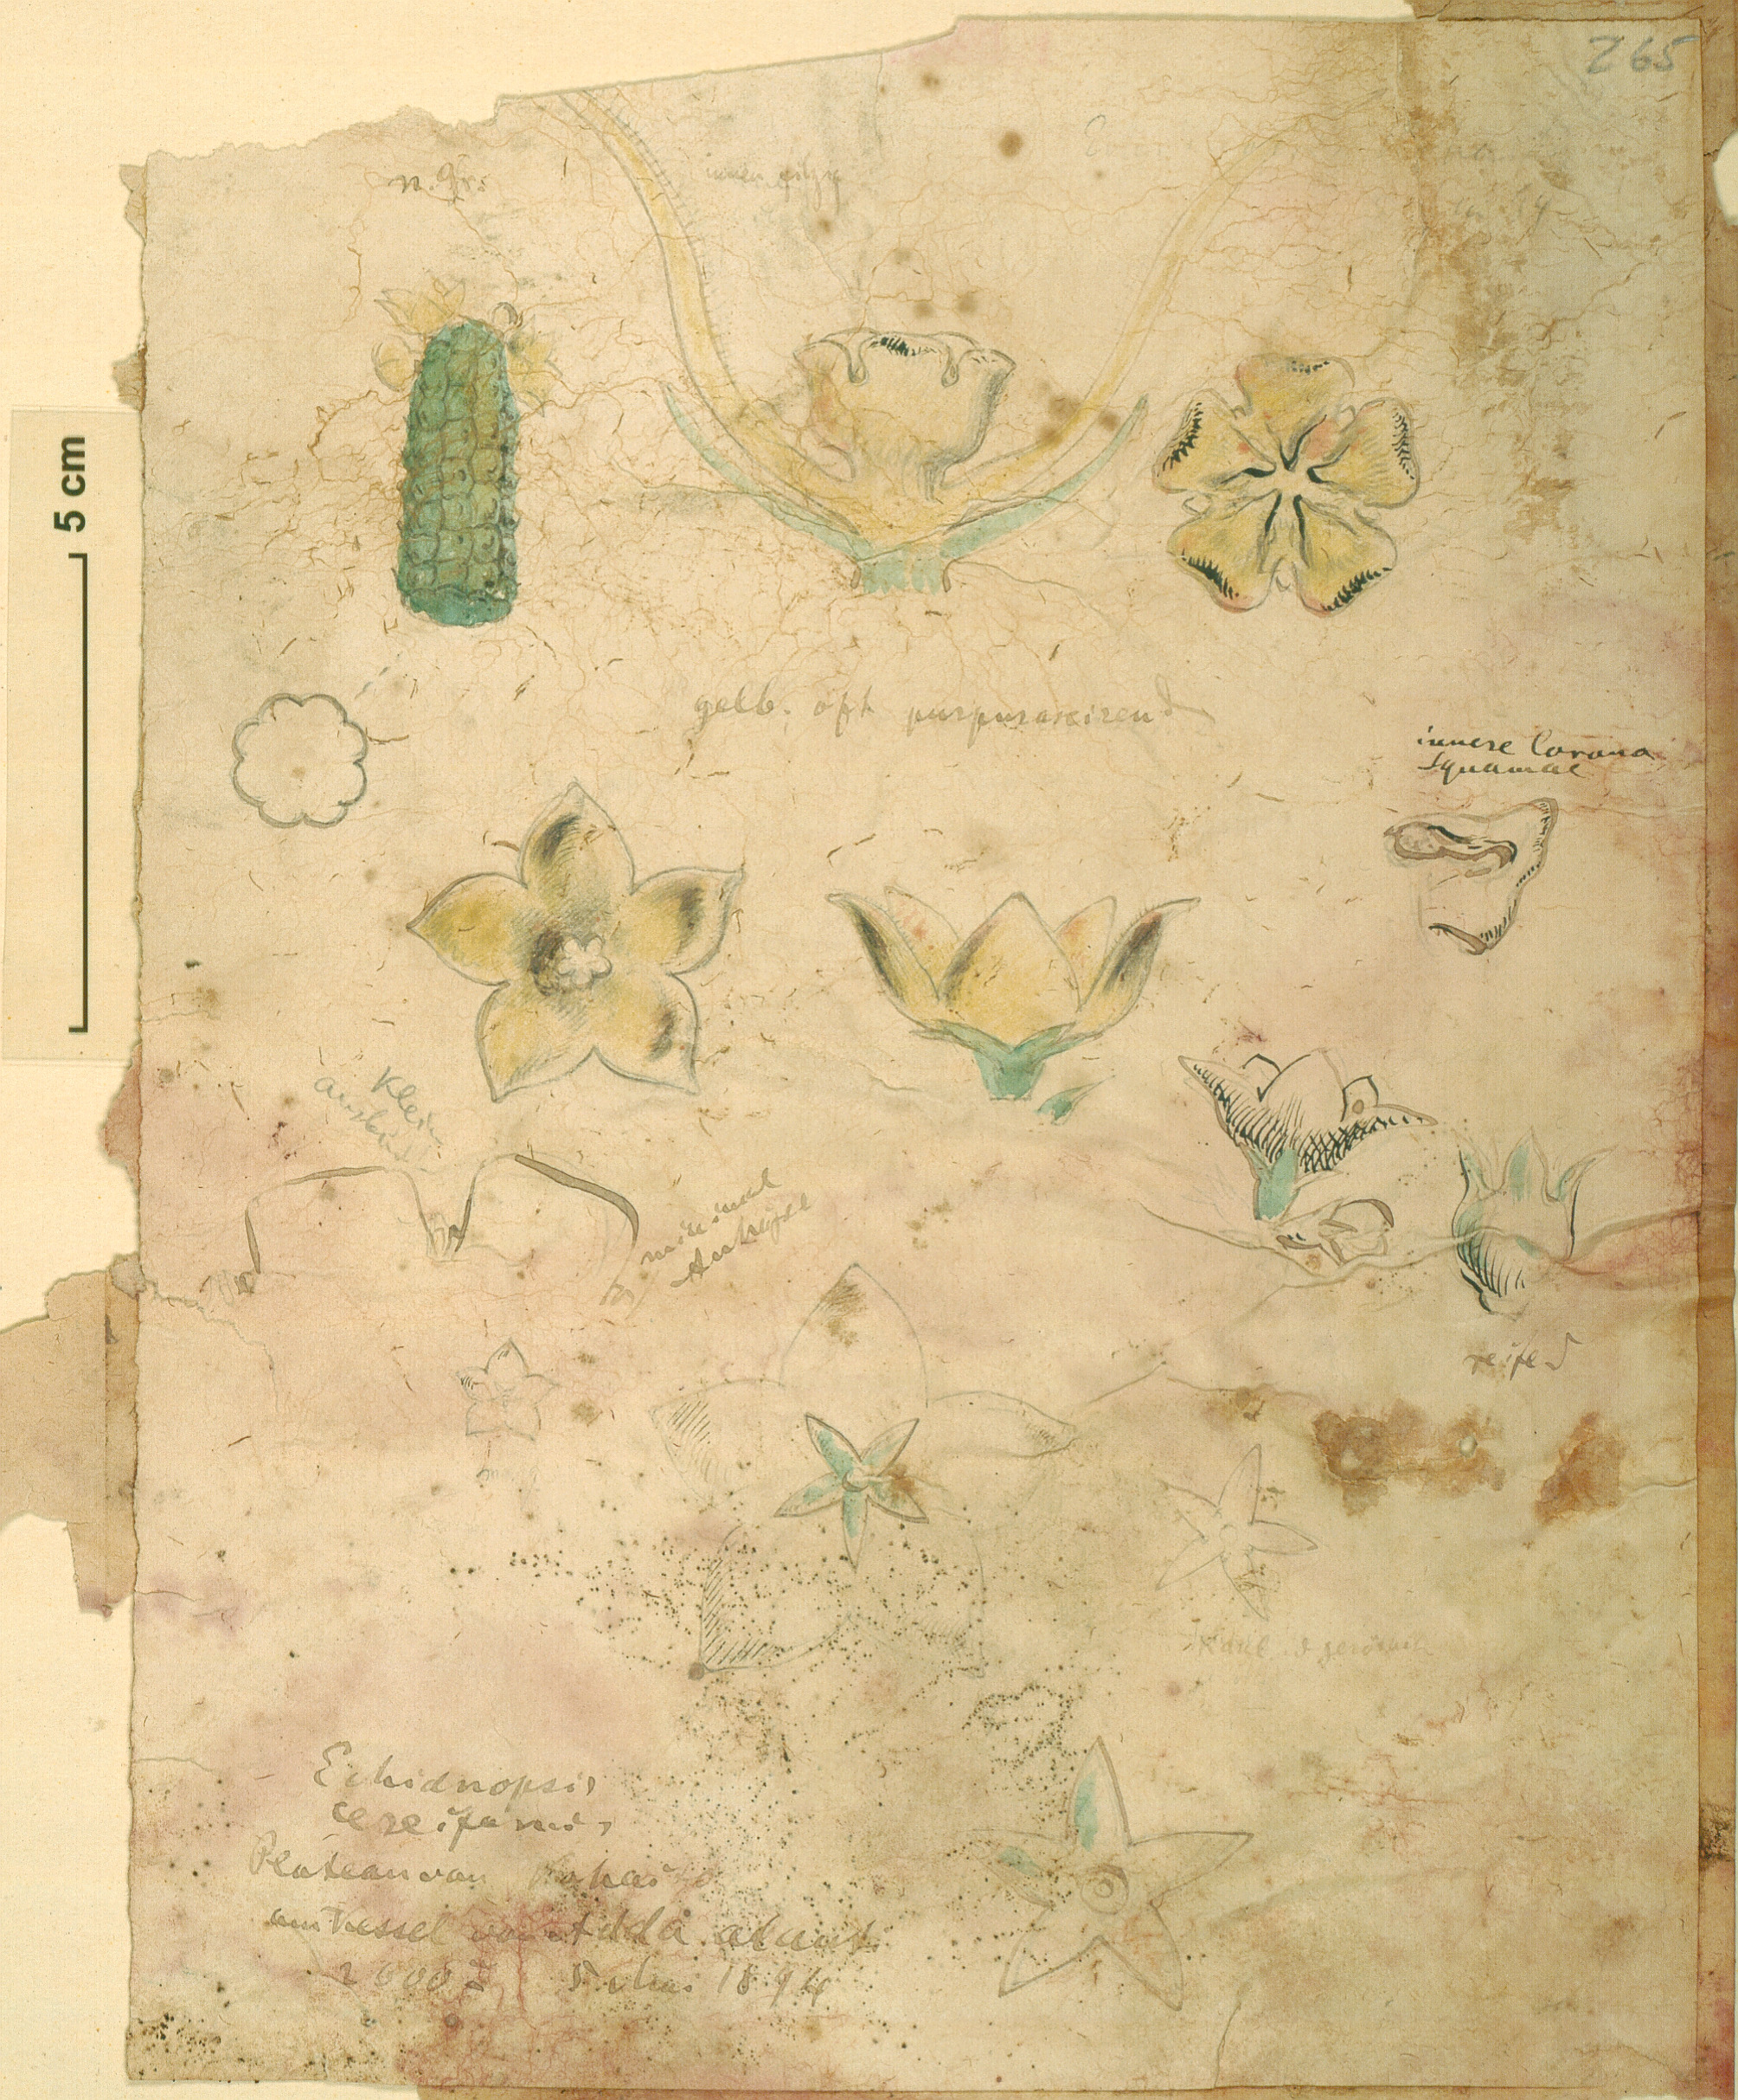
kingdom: Plantae
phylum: Tracheophyta
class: Magnoliopsida
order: Gentianales
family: Apocynaceae
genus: Ceropegia
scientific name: Ceropegia cereiformis
